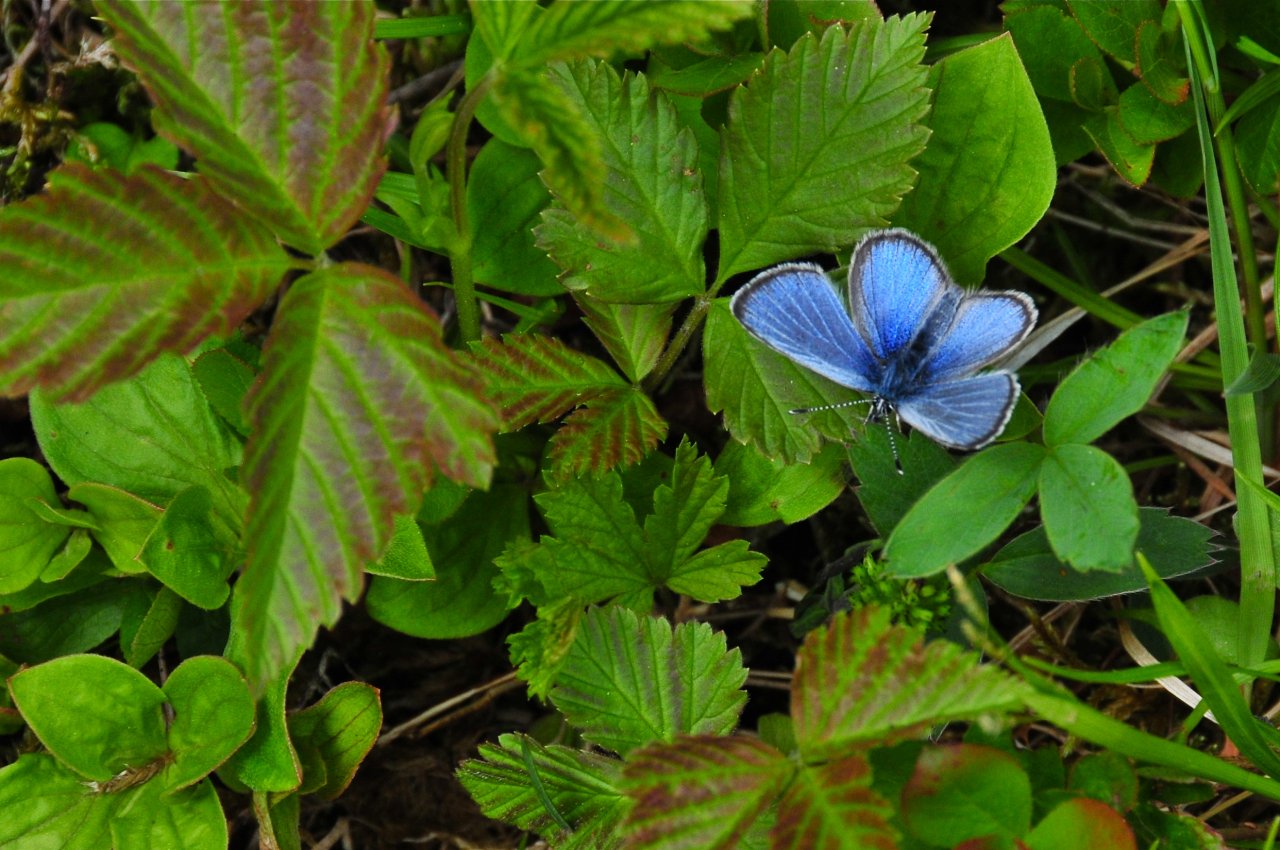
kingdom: Animalia
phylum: Arthropoda
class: Insecta
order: Lepidoptera
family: Lycaenidae
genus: Glaucopsyche
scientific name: Glaucopsyche lygdamus
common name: Silvery Blue
